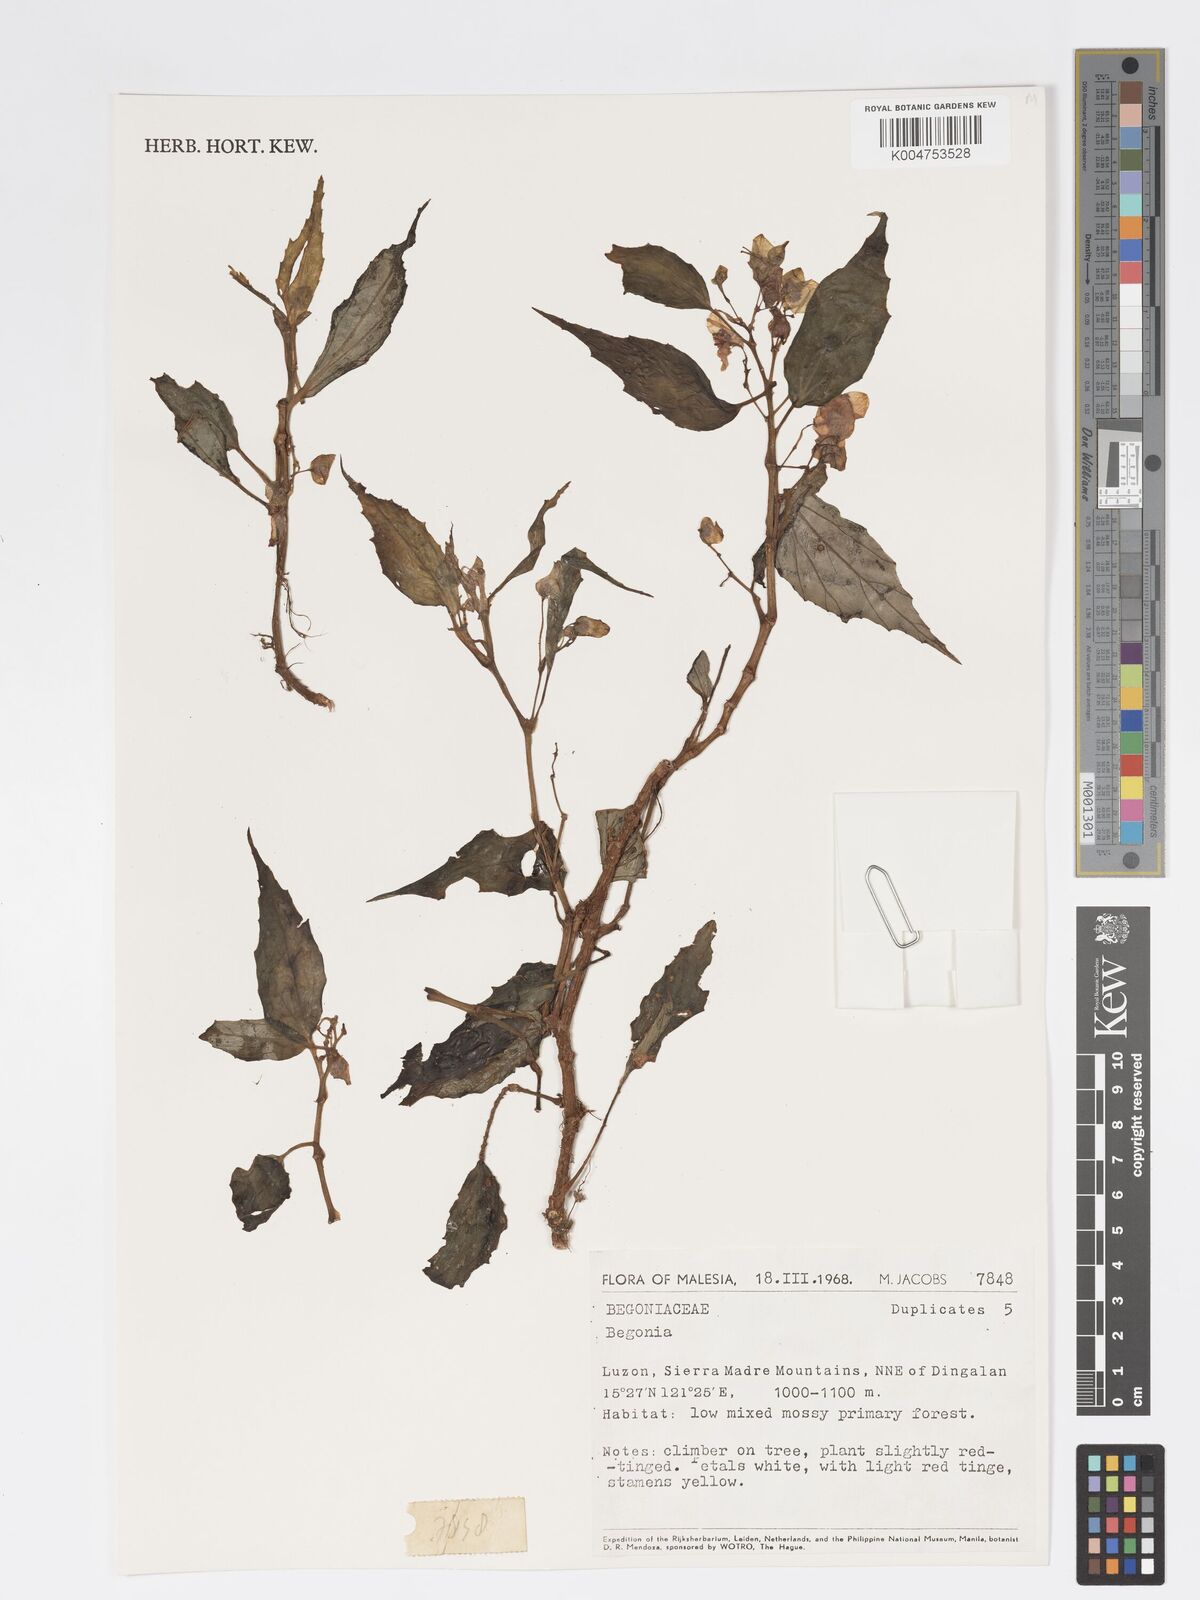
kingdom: Plantae
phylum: Tracheophyta
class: Magnoliopsida
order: Cucurbitales
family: Begoniaceae
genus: Begonia
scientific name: Begonia
